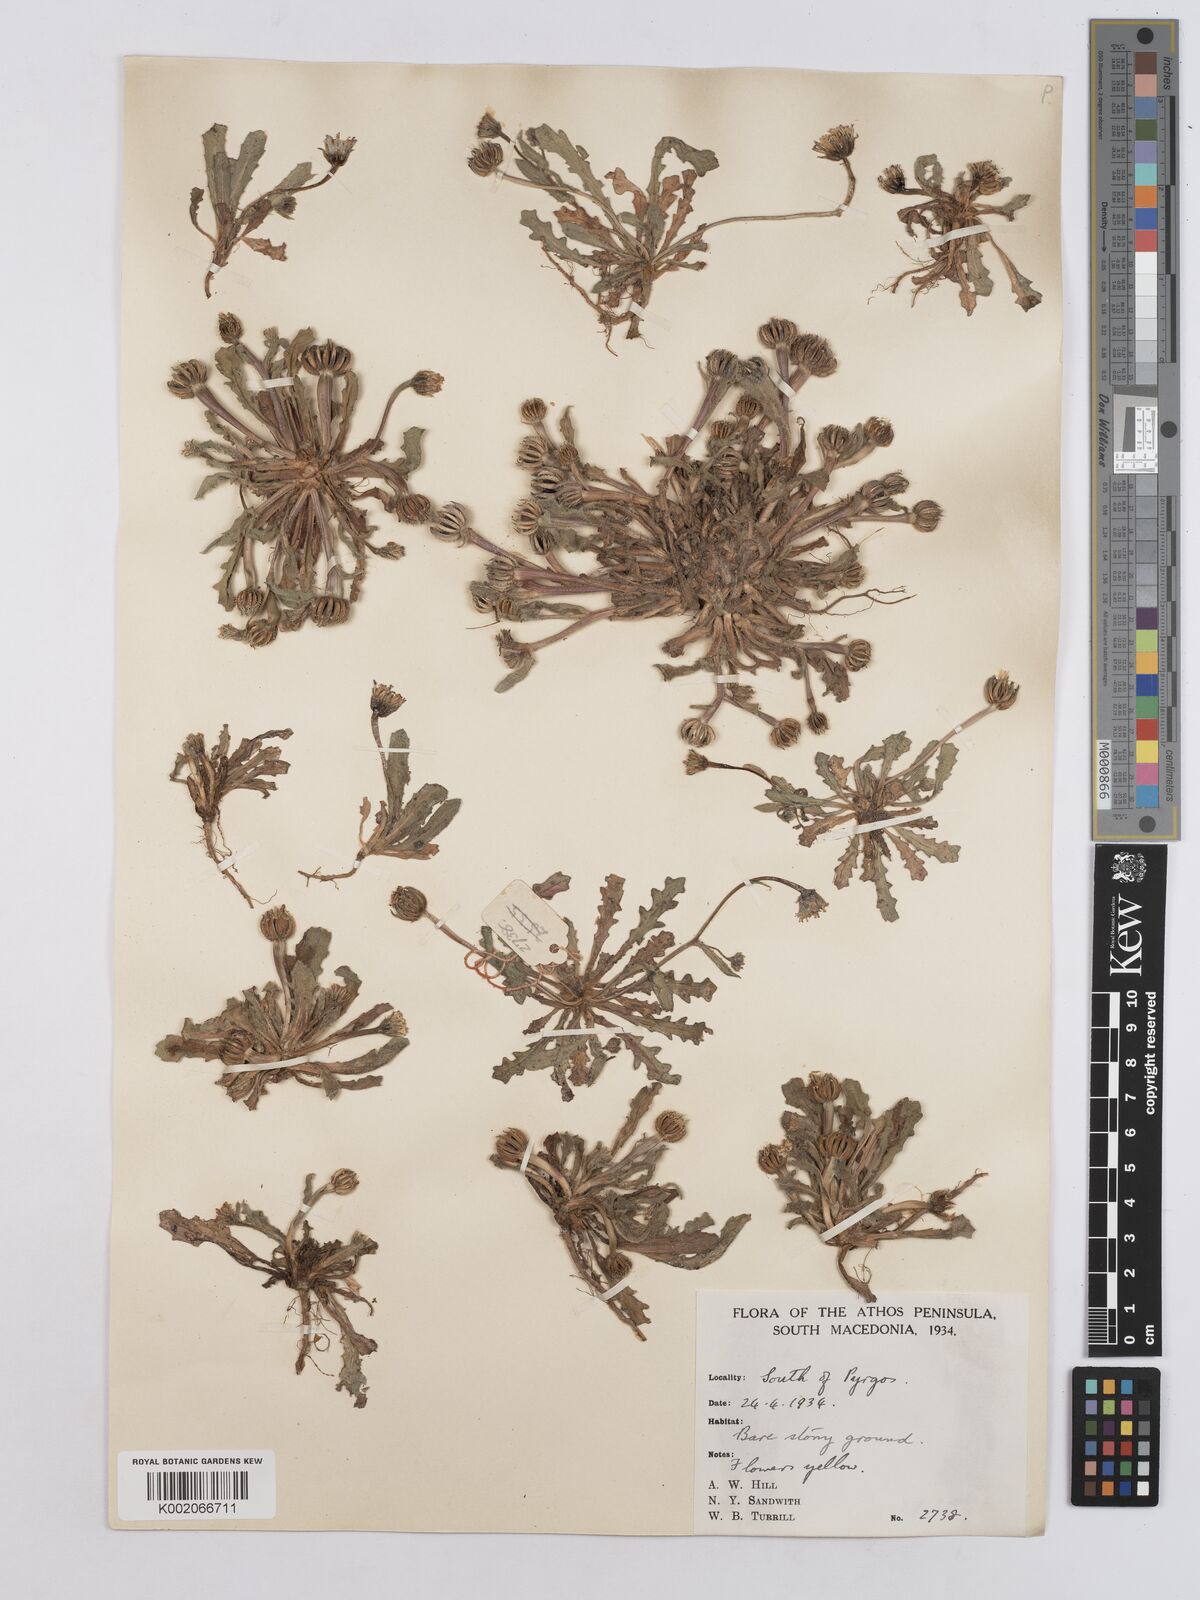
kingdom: Plantae
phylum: Tracheophyta
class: Magnoliopsida
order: Asterales
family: Asteraceae
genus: Hedypnois
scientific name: Hedypnois rhagadioloides
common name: Cretan weed
